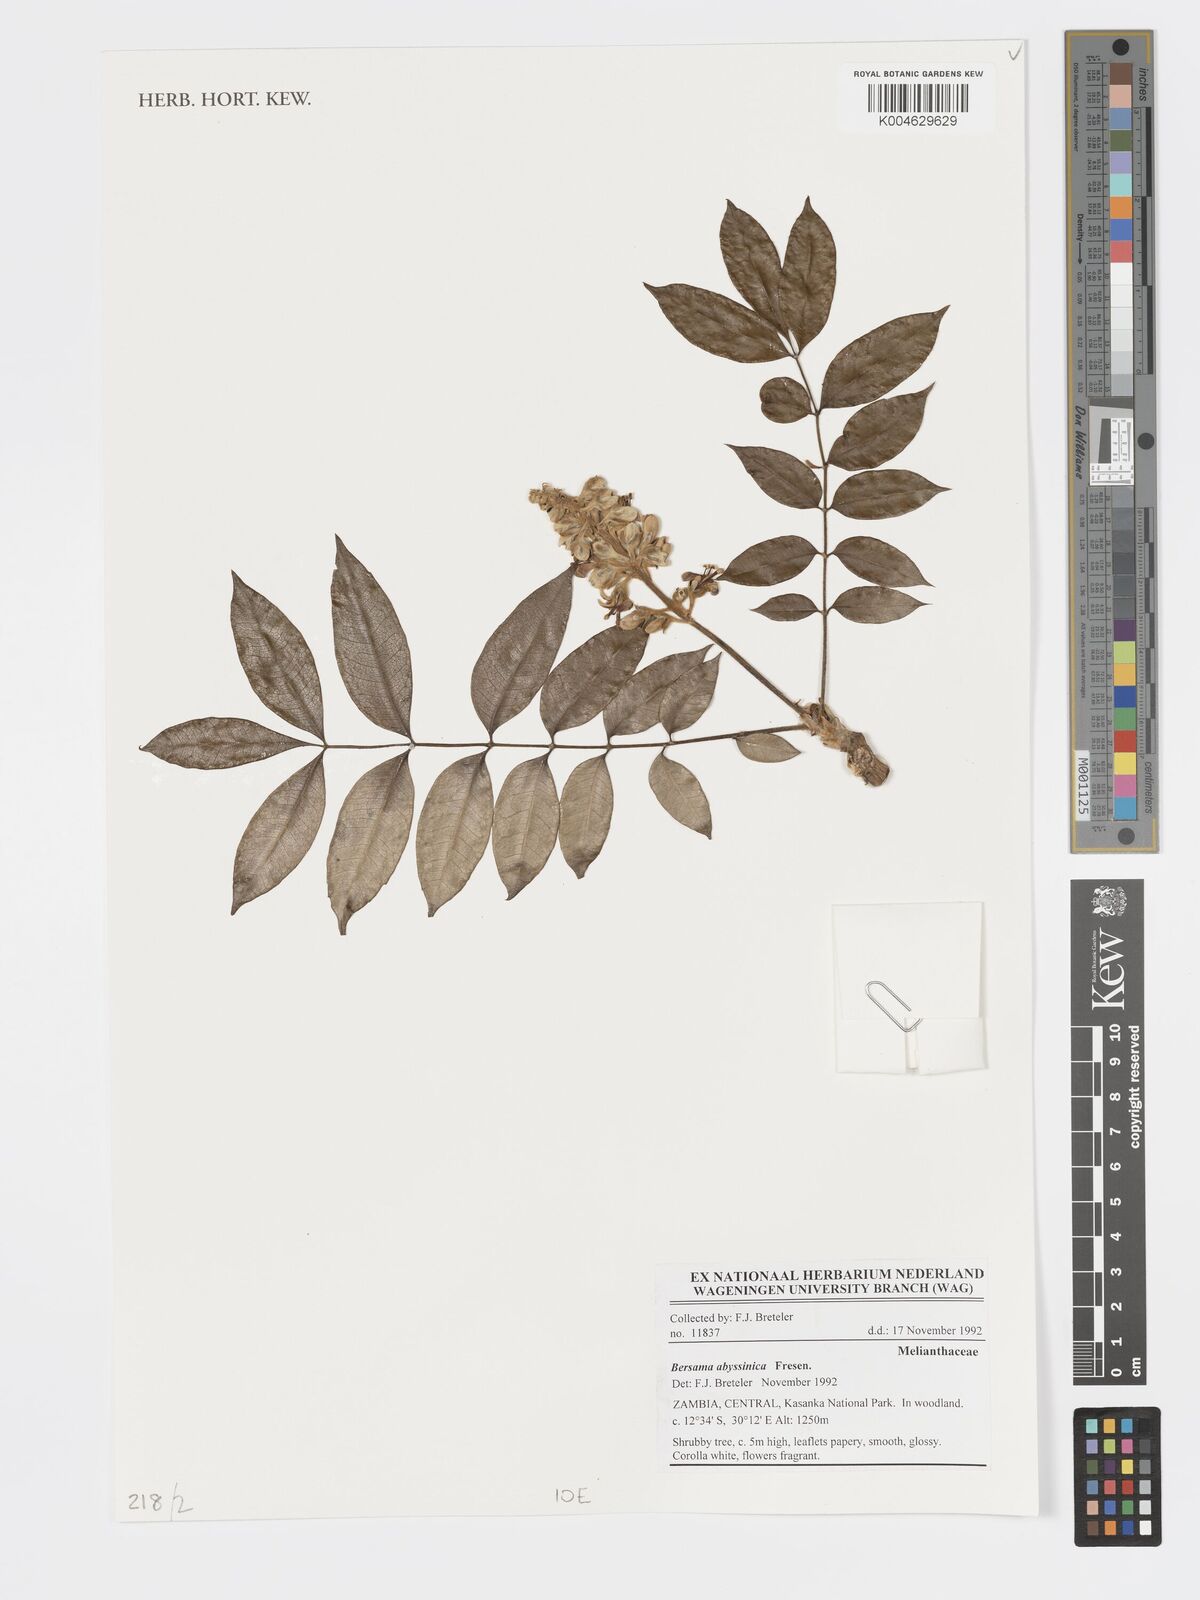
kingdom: Plantae
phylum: Tracheophyta
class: Magnoliopsida
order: Geraniales
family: Melianthaceae
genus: Bersama
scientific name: Bersama abyssinica
